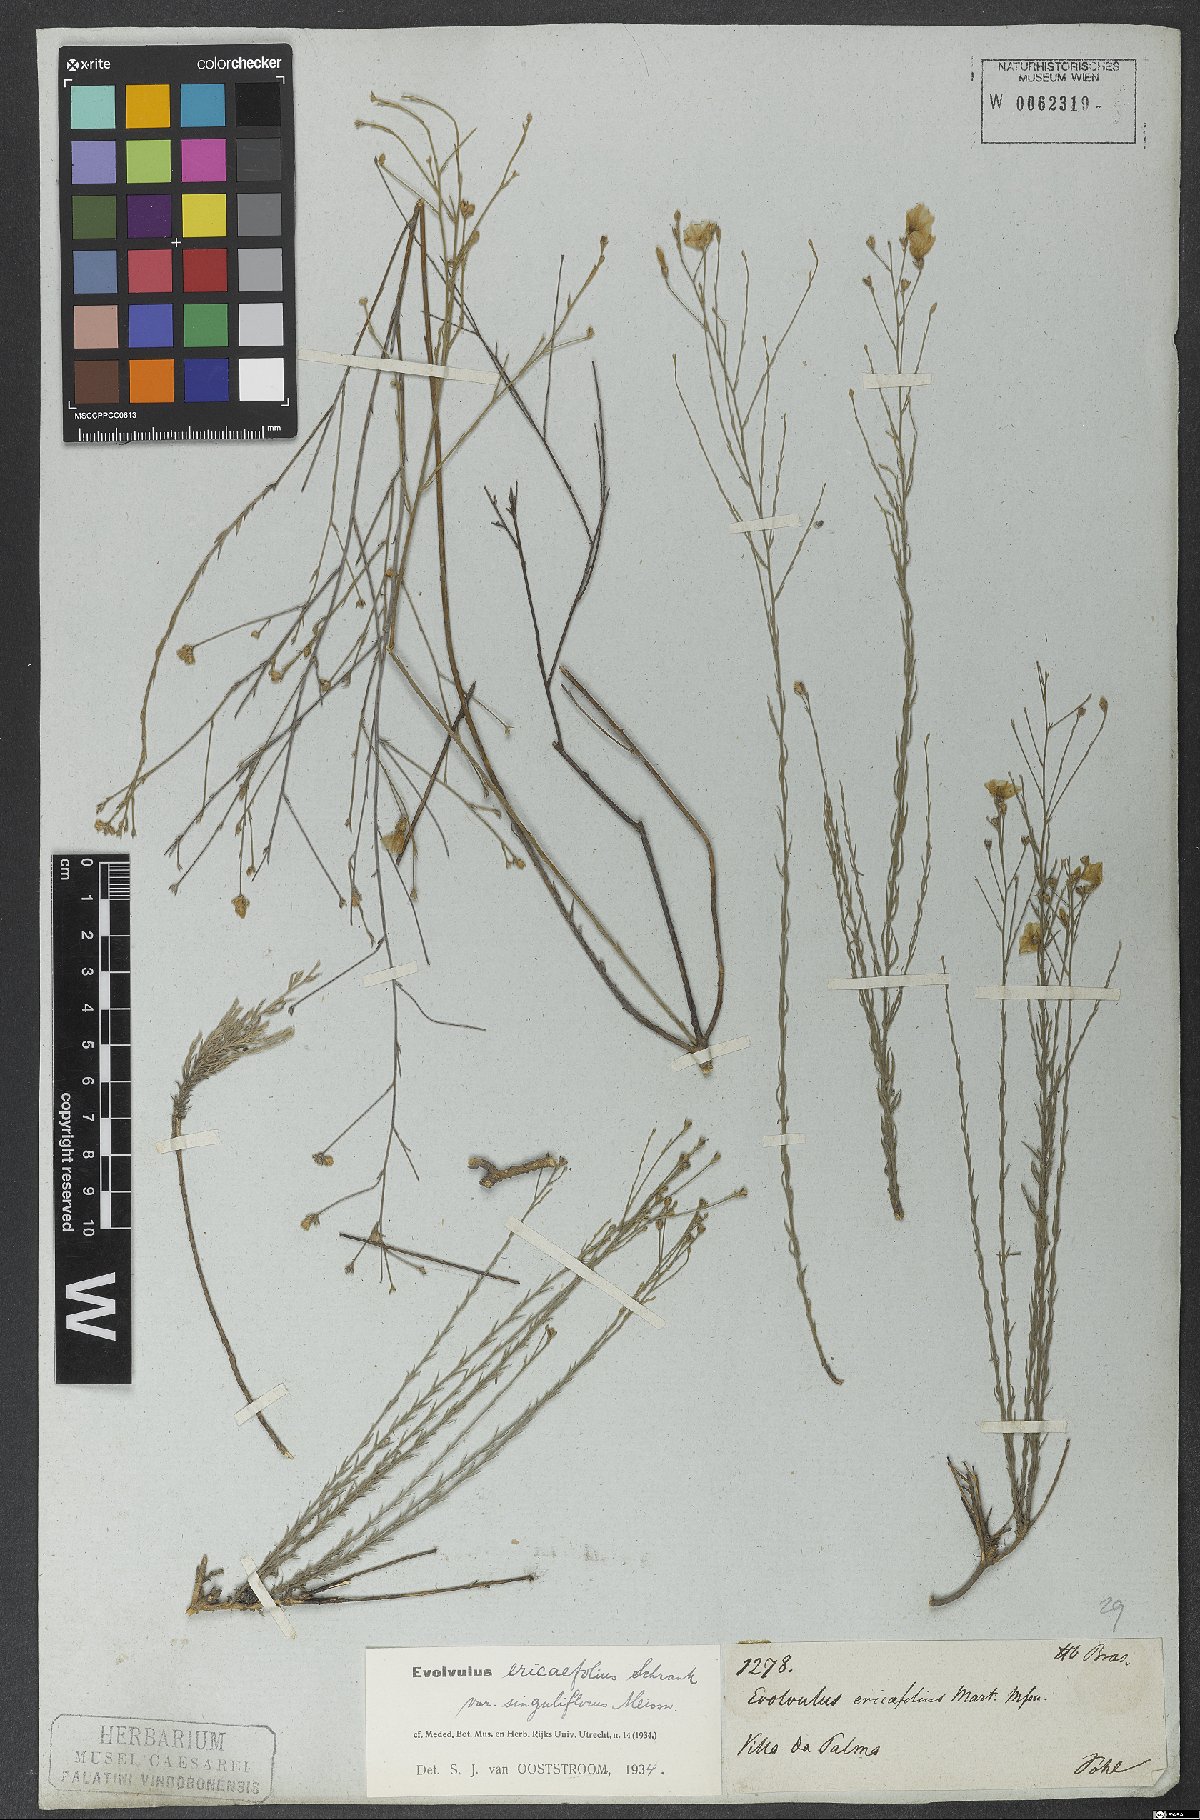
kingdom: Plantae
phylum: Tracheophyta
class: Magnoliopsida
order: Solanales
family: Convolvulaceae
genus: Evolvulus
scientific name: Evolvulus ericifolius
